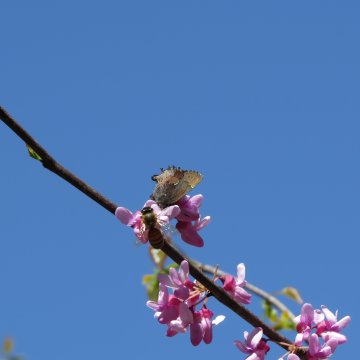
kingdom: Animalia
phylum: Arthropoda
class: Insecta
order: Lepidoptera
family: Lycaenidae
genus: Incisalia
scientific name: Incisalia henrici
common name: Henry's Elfin
